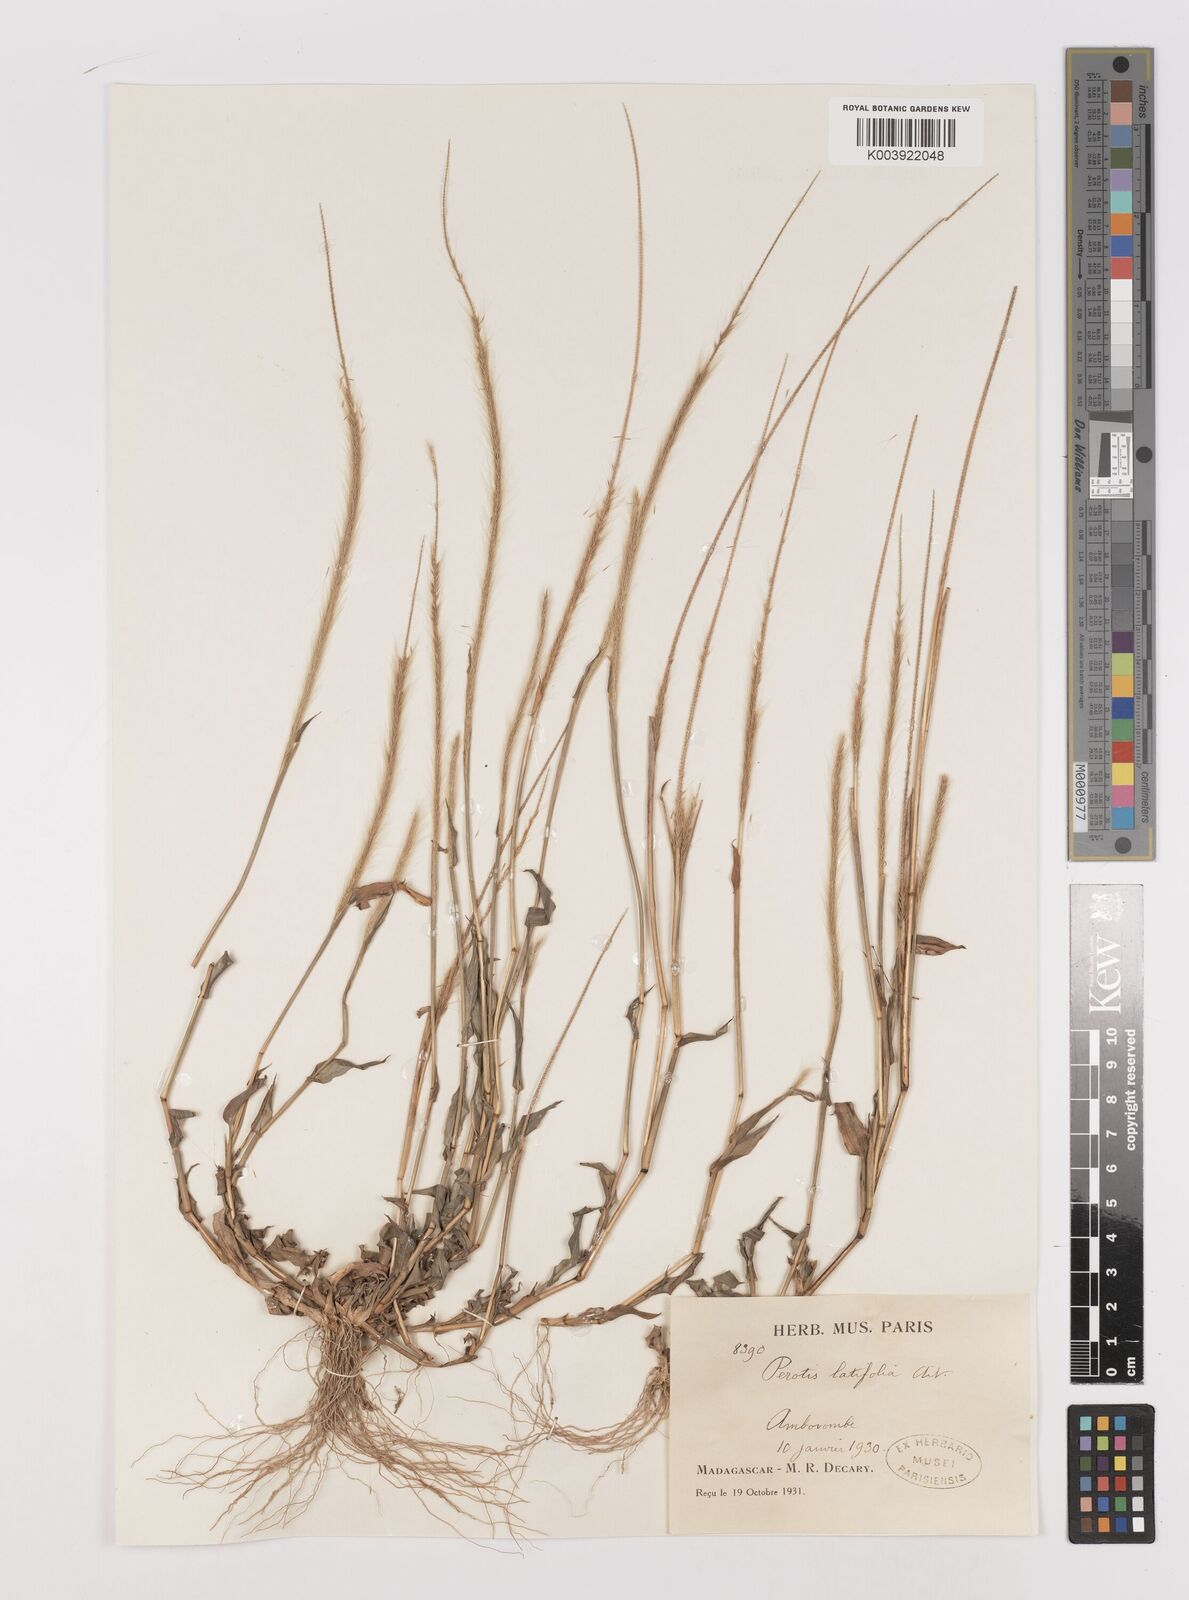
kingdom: Plantae
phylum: Tracheophyta
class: Liliopsida
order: Poales
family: Poaceae
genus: Perotis
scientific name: Perotis patens
